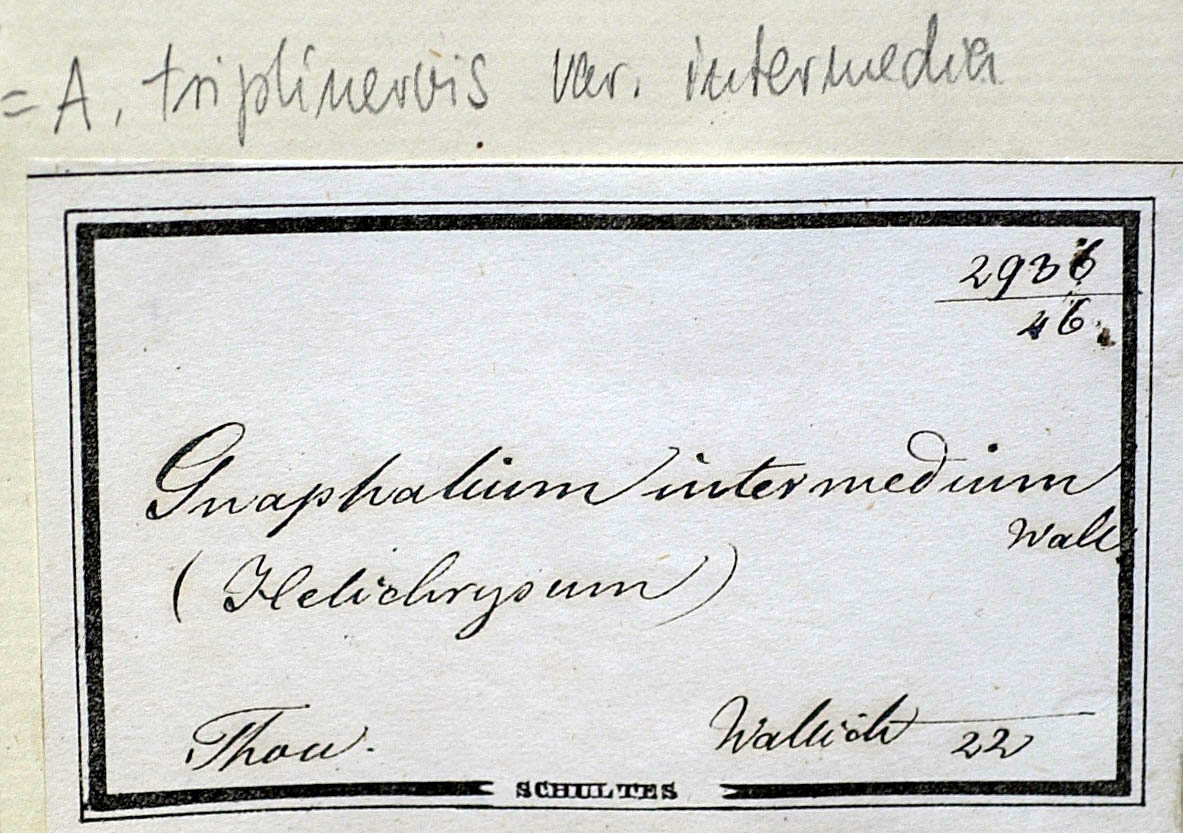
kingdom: Plantae
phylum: Tracheophyta
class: Magnoliopsida
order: Asterales
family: Asteraceae
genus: Anaphalis
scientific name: Anaphalis nepalensis
